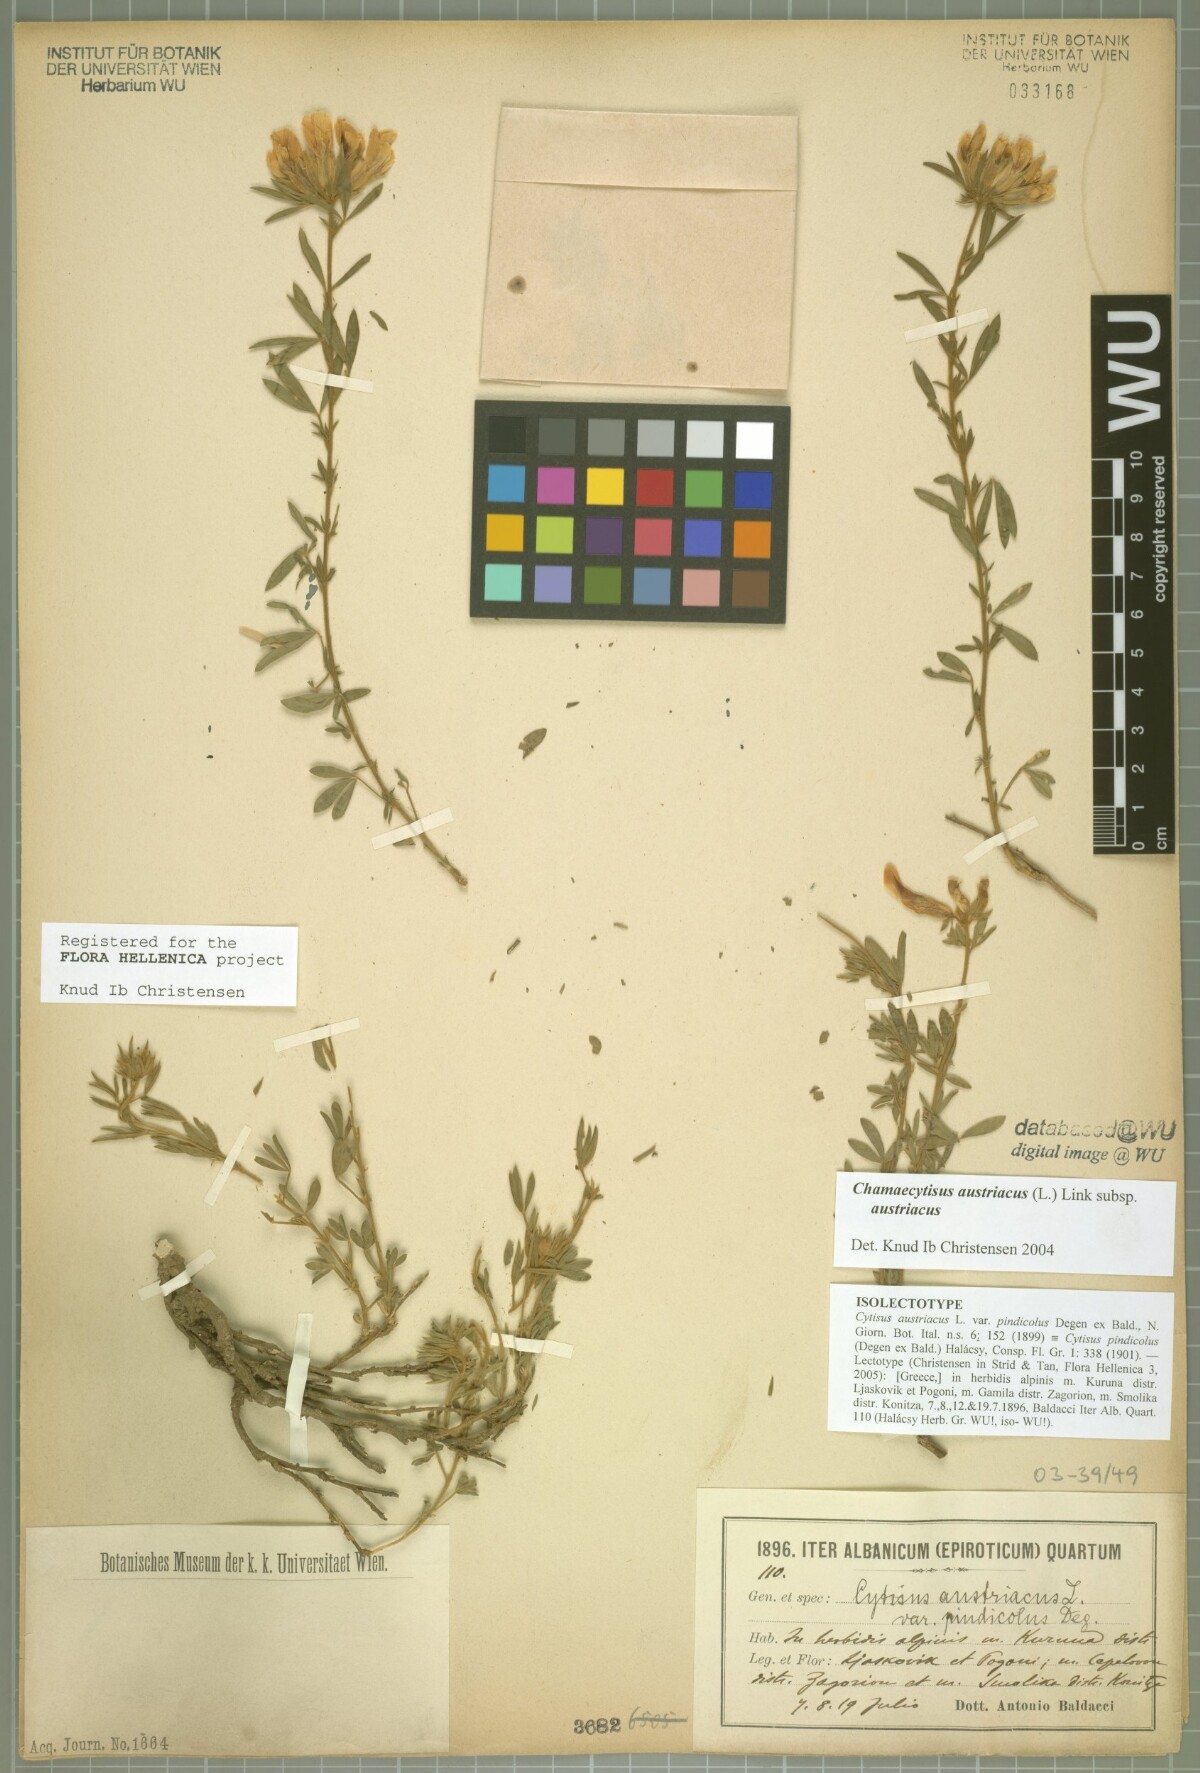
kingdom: Plantae
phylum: Tracheophyta
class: Magnoliopsida
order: Fabales
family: Fabaceae
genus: Chamaecytisus
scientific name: Chamaecytisus austriacus
